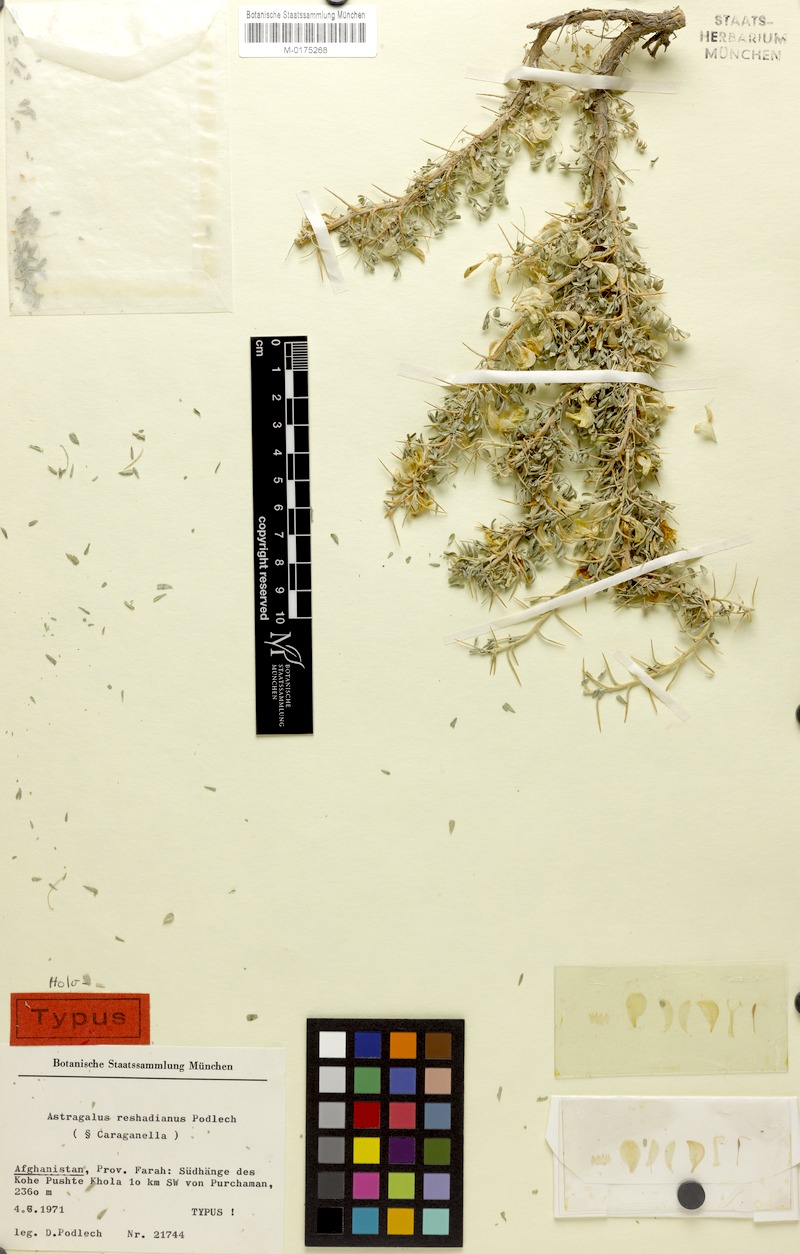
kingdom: Plantae
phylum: Tracheophyta
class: Magnoliopsida
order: Fabales
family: Fabaceae
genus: Astragalus
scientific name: Astragalus reshadianus
